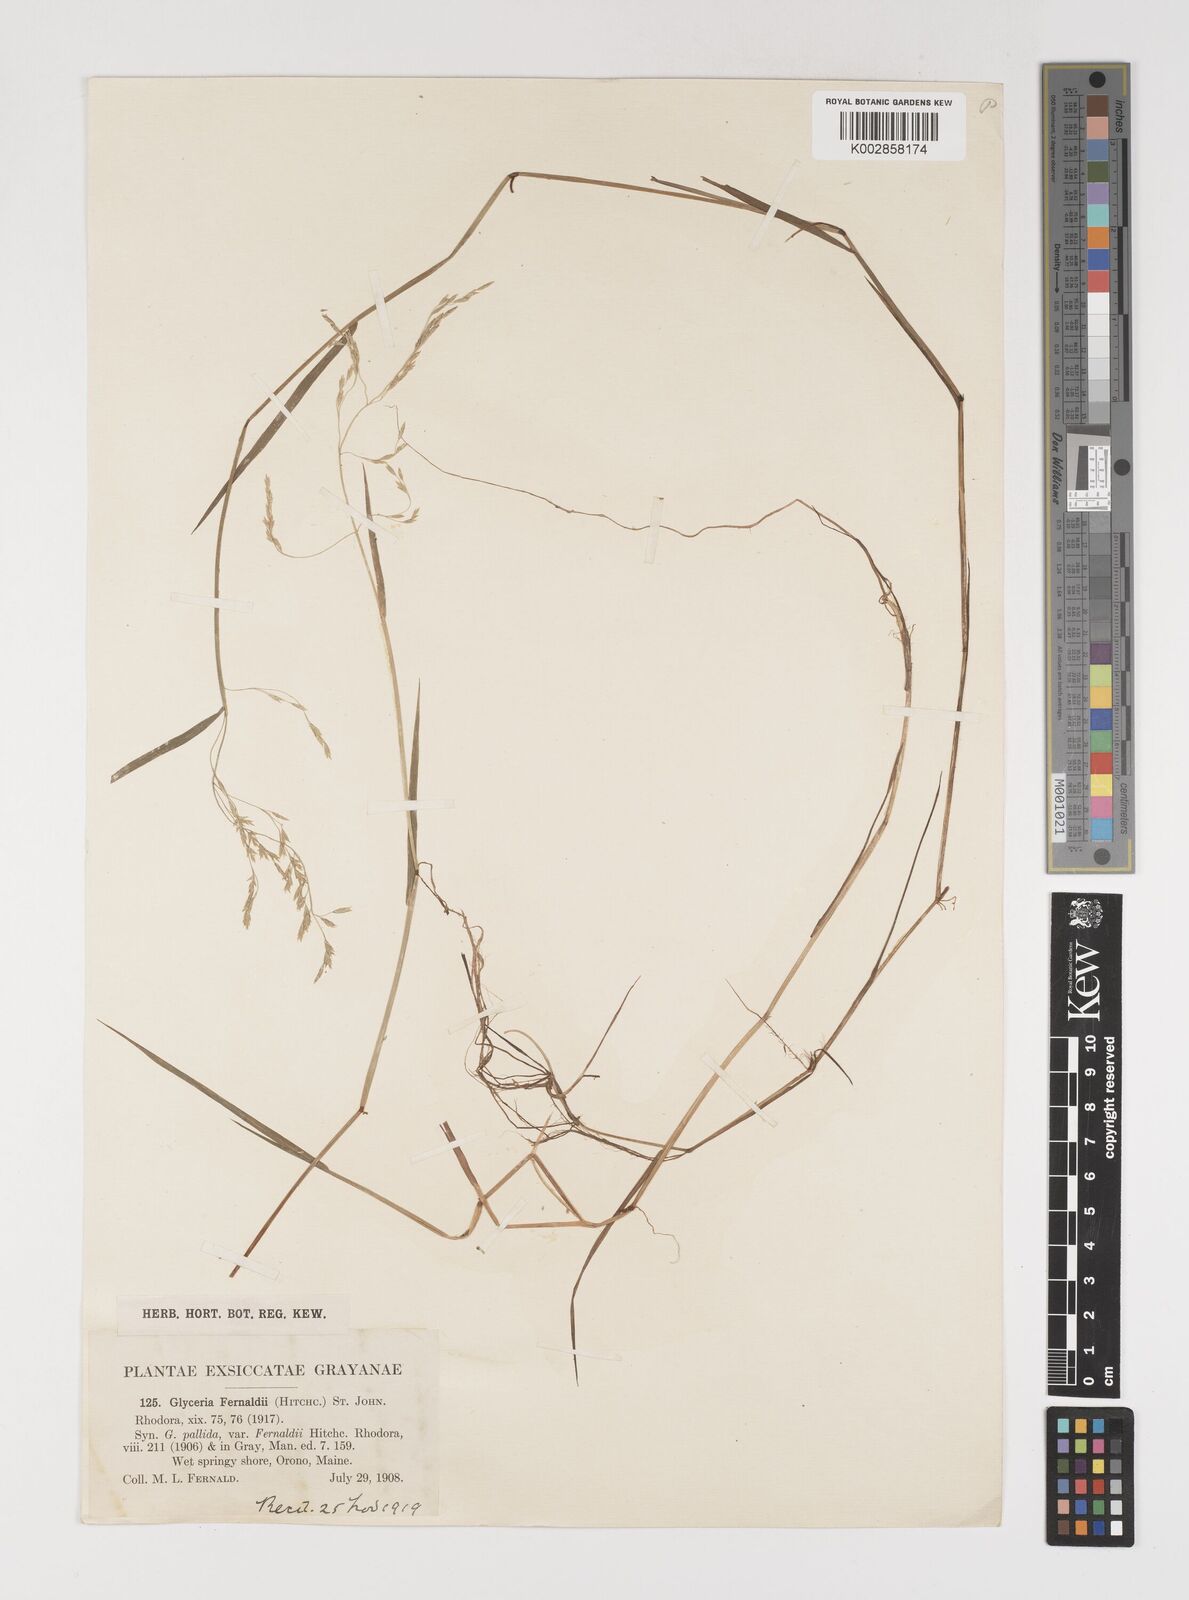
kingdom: Plantae
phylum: Tracheophyta
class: Liliopsida
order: Poales
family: Poaceae
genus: Torreyochloa
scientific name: Torreyochloa pallida
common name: Pale false mannagrass
